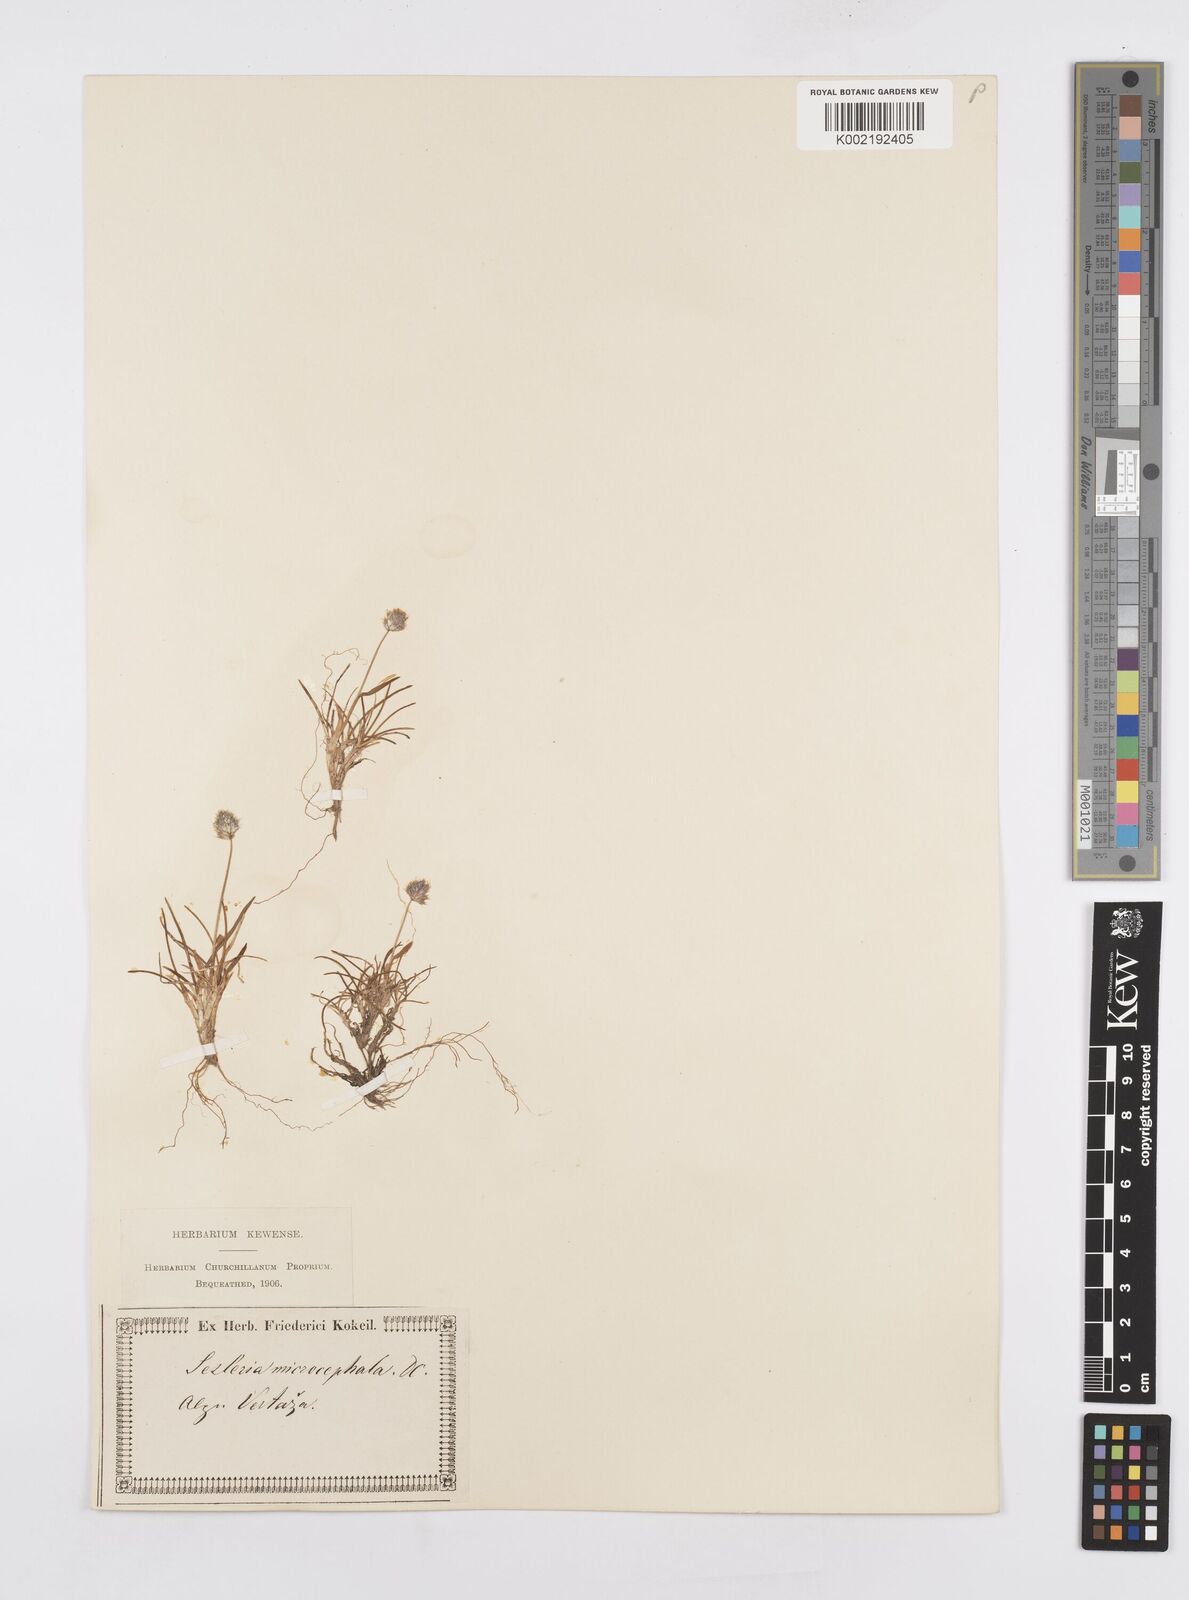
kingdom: Plantae
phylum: Tracheophyta
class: Liliopsida
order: Poales
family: Poaceae
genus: Psilathera
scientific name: Psilathera ovata
